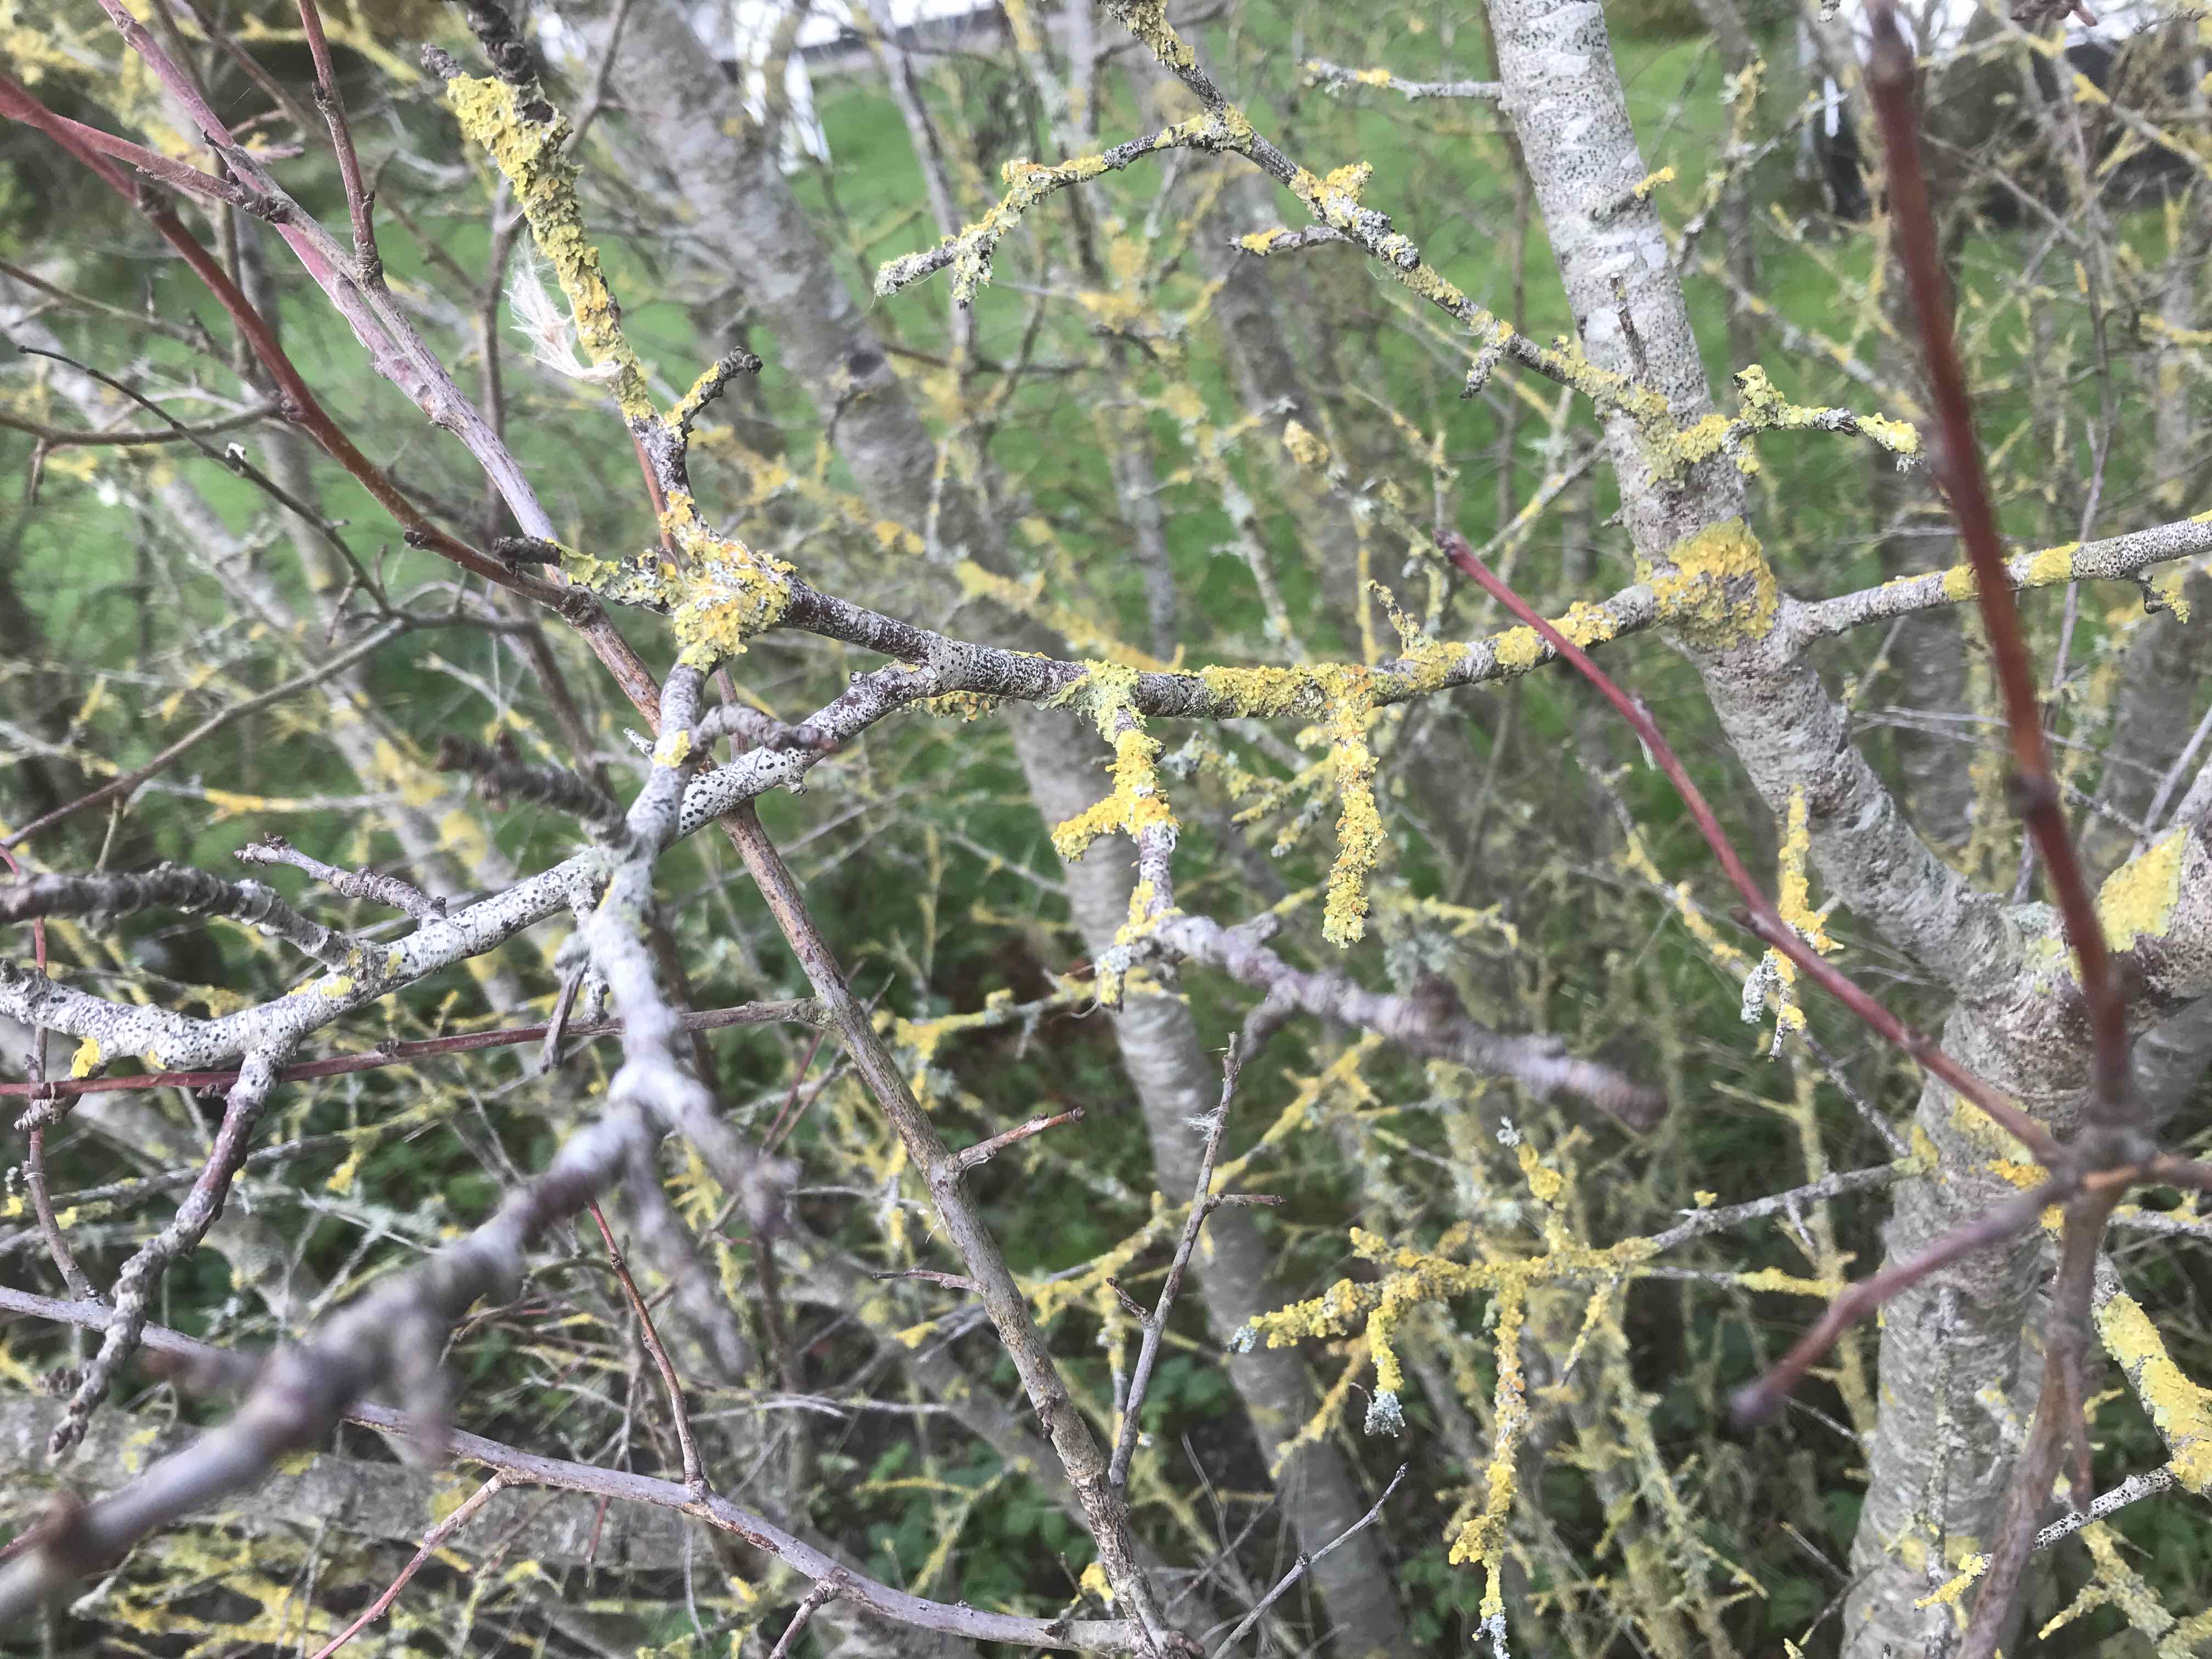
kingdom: Fungi
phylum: Ascomycota
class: Lecanoromycetes
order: Teloschistales
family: Teloschistaceae
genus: Xanthoria
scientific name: Xanthoria parietina
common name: almindelig væggelav
